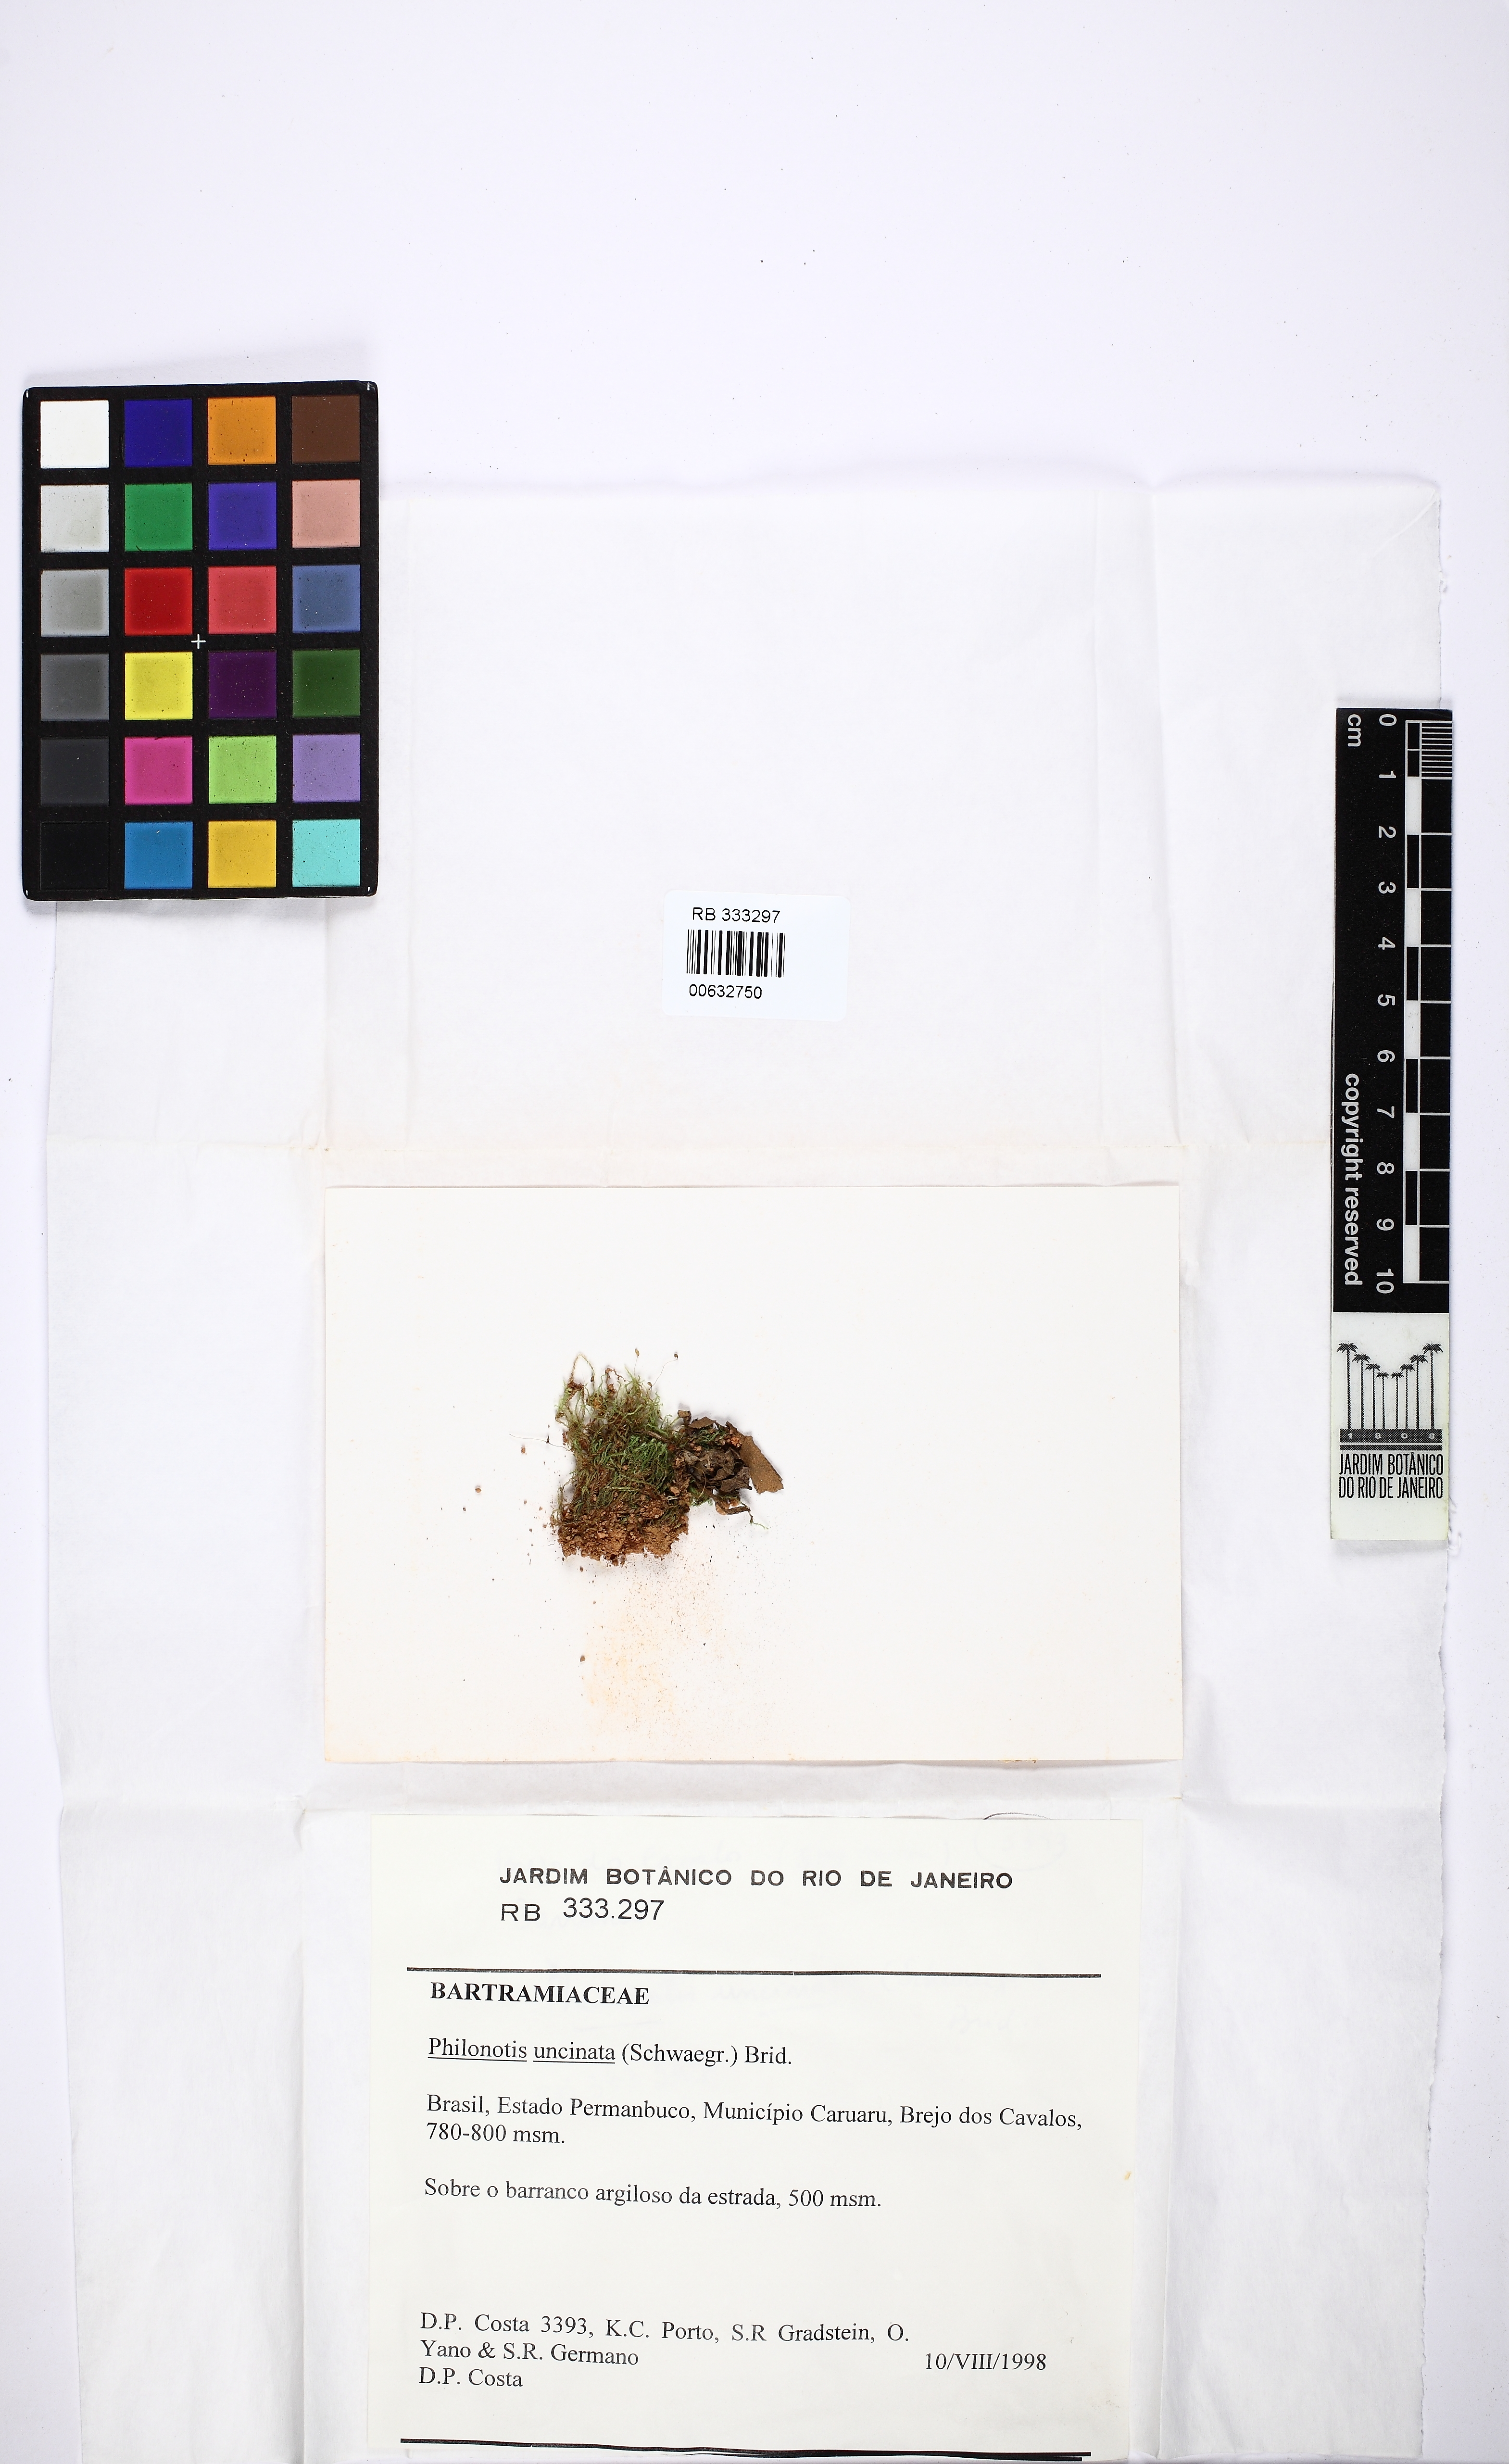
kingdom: Plantae
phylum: Bryophyta
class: Bryopsida
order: Bartramiales
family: Bartramiaceae
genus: Philonotis
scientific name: Philonotis uncinata
